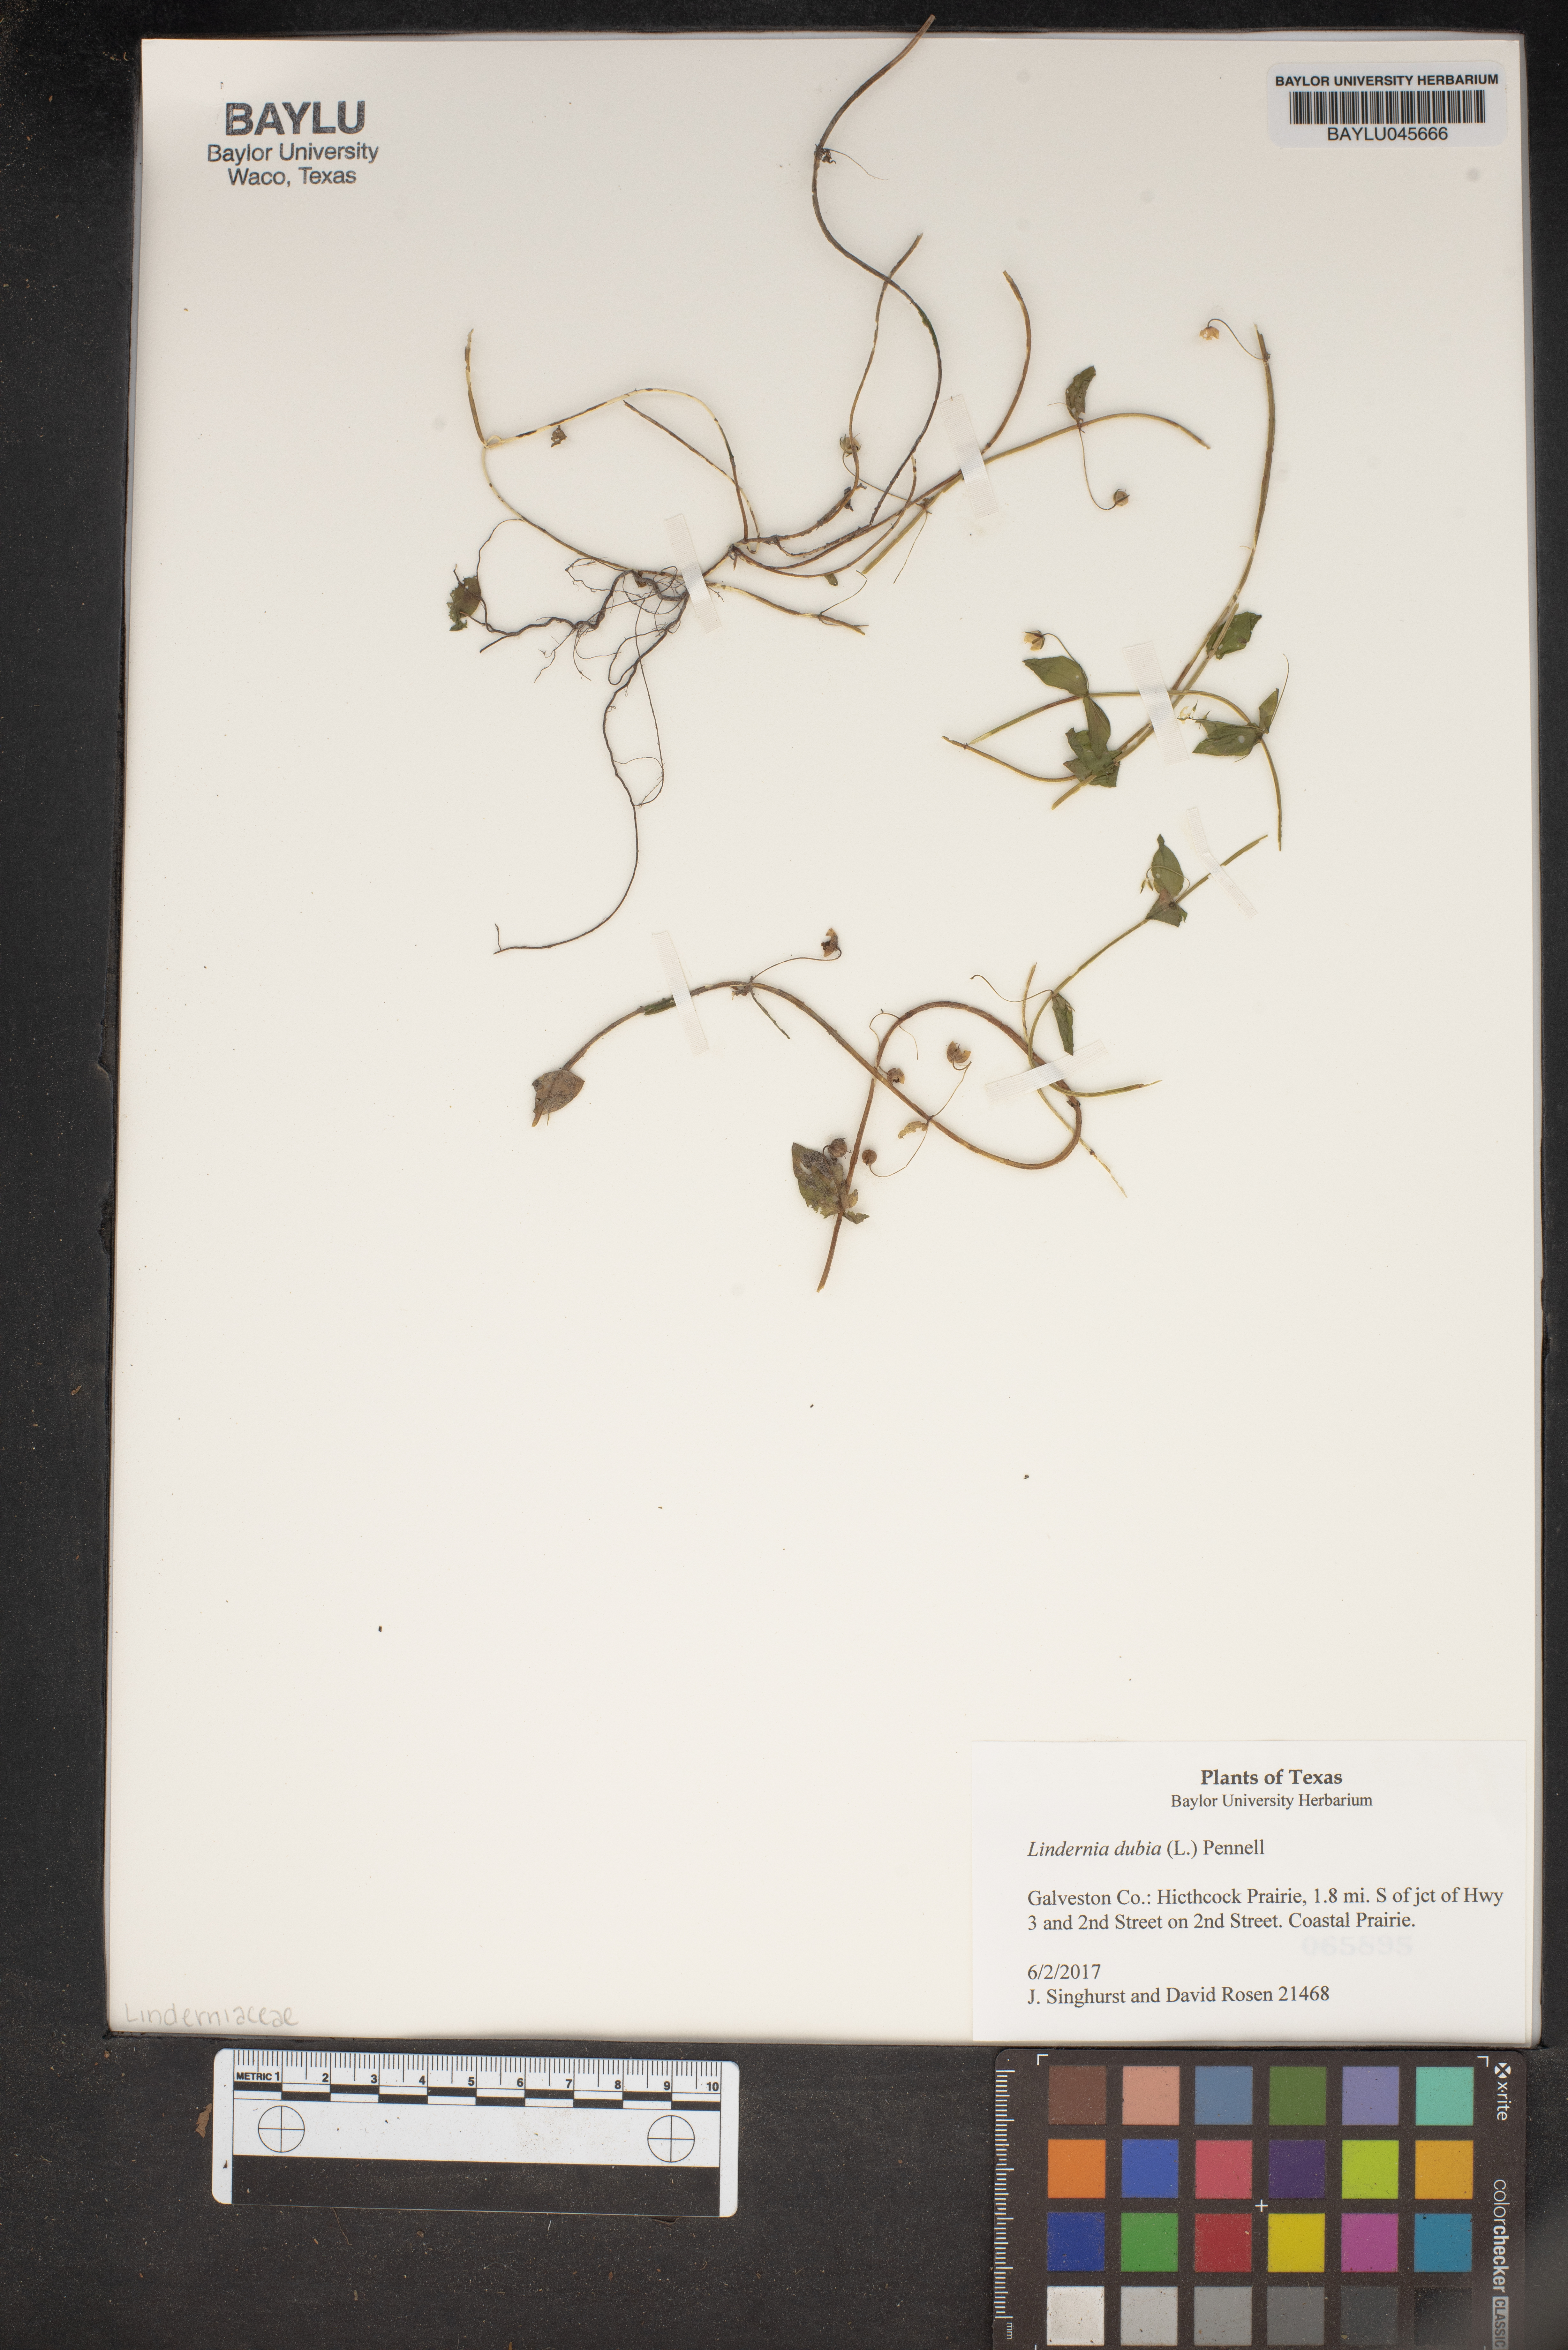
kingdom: Plantae
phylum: Tracheophyta
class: Magnoliopsida
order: Lamiales
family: Linderniaceae
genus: Lindernia
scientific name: Lindernia dubia
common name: Annual false pimpernel
